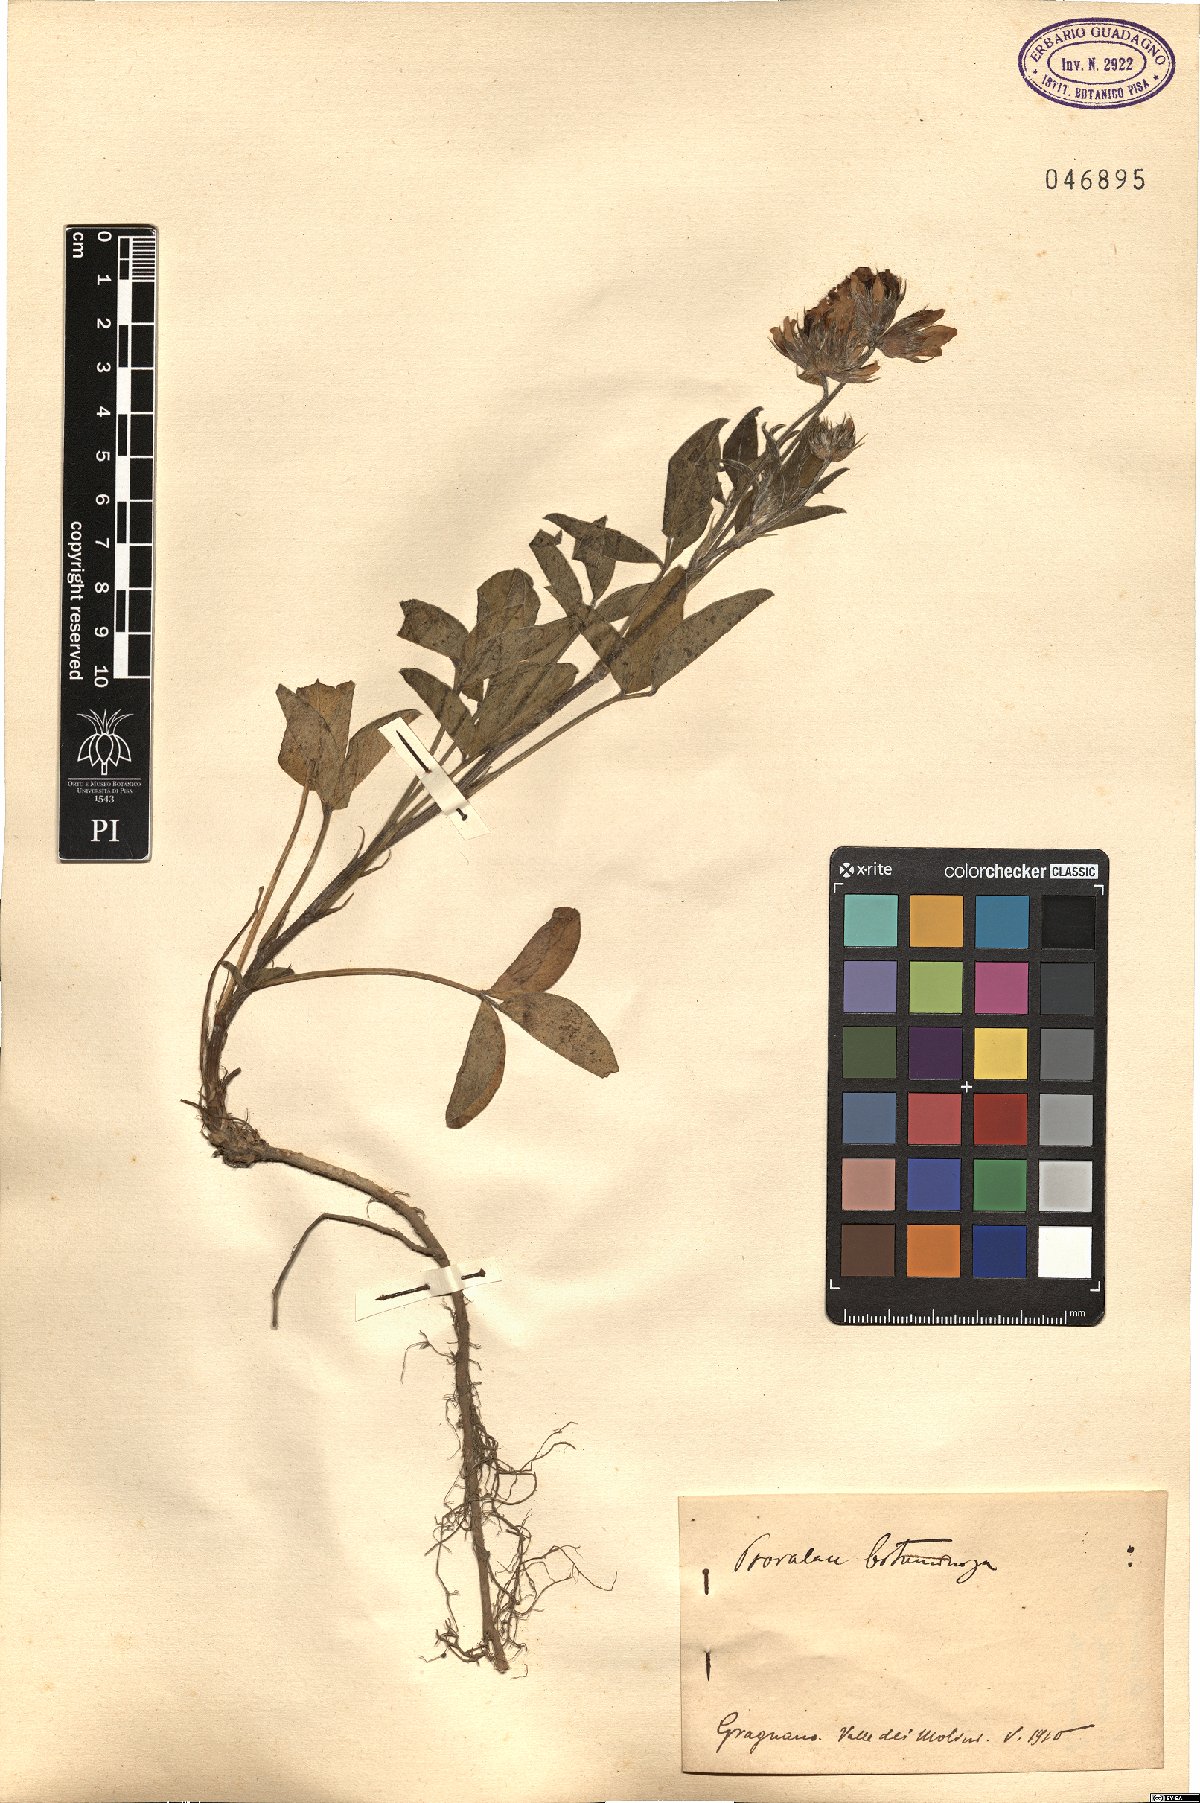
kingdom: Plantae
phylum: Tracheophyta
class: Magnoliopsida
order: Fabales
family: Fabaceae
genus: Bituminaria
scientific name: Bituminaria bituminosa
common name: Arabian pea
